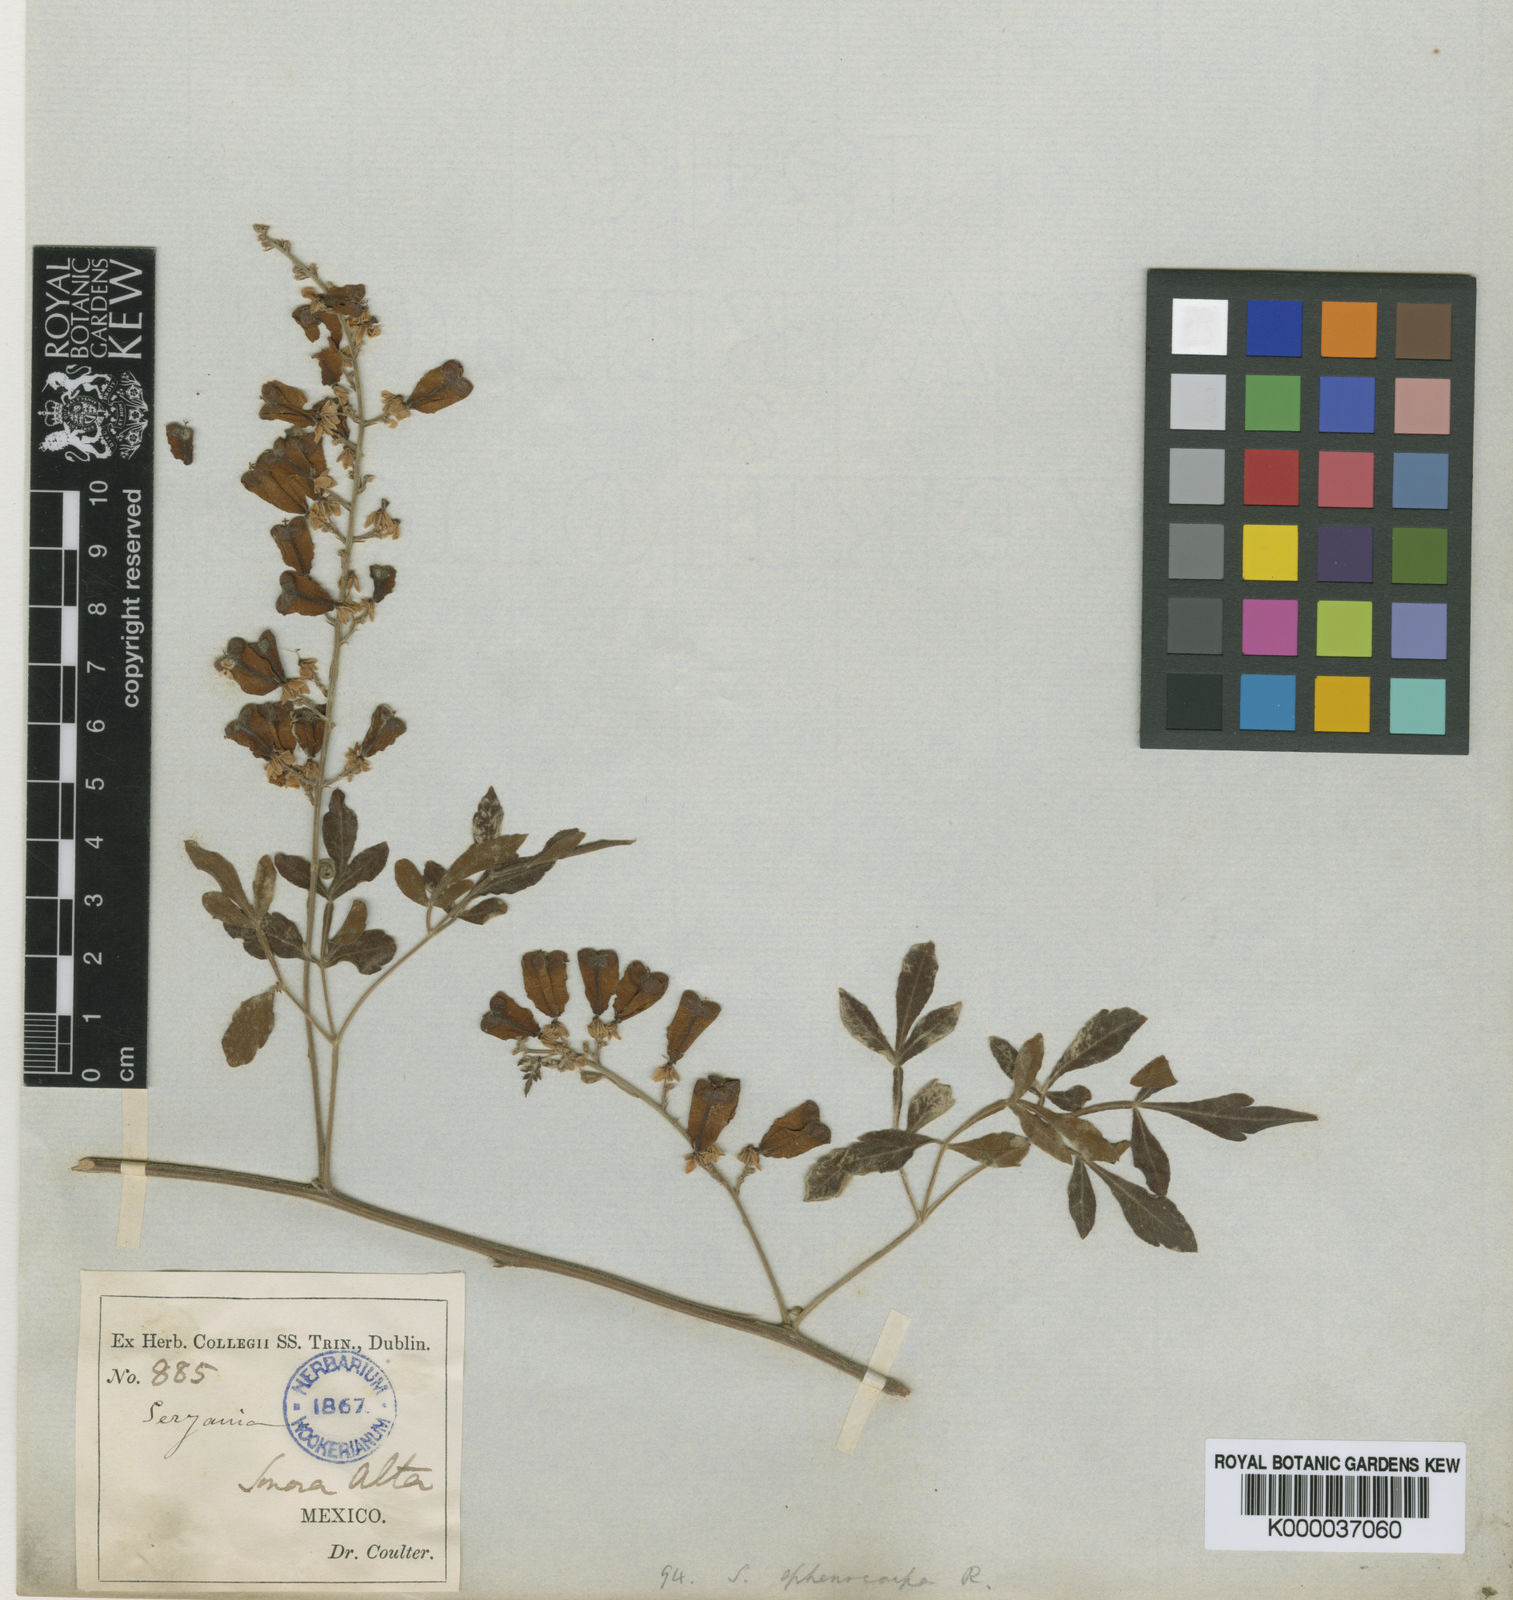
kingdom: Plantae
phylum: Tracheophyta
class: Magnoliopsida
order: Sapindales
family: Sapindaceae
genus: Serjania
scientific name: Serjania sphenocarpa
